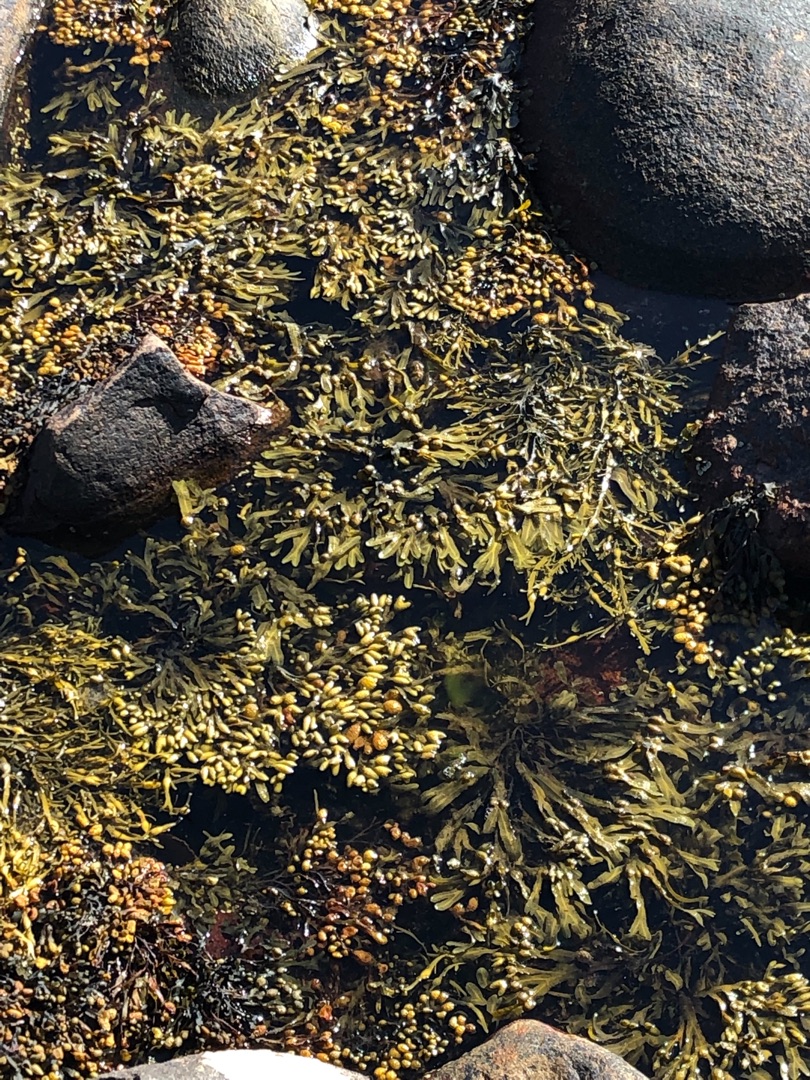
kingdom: Chromista
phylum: Ochrophyta
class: Phaeophyceae
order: Fucales
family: Fucaceae
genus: Fucus
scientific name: Fucus vesiculosus
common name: Blæretang
